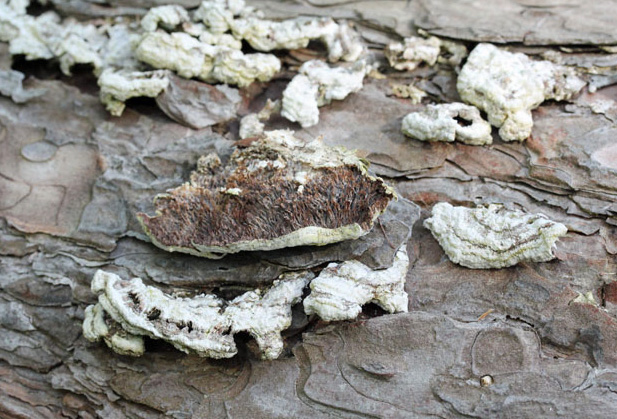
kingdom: Fungi
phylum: Basidiomycota
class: Agaricomycetes
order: Hymenochaetales
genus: Trichaptum
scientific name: Trichaptum fuscoviolaceum
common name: tandet violporesvamp
